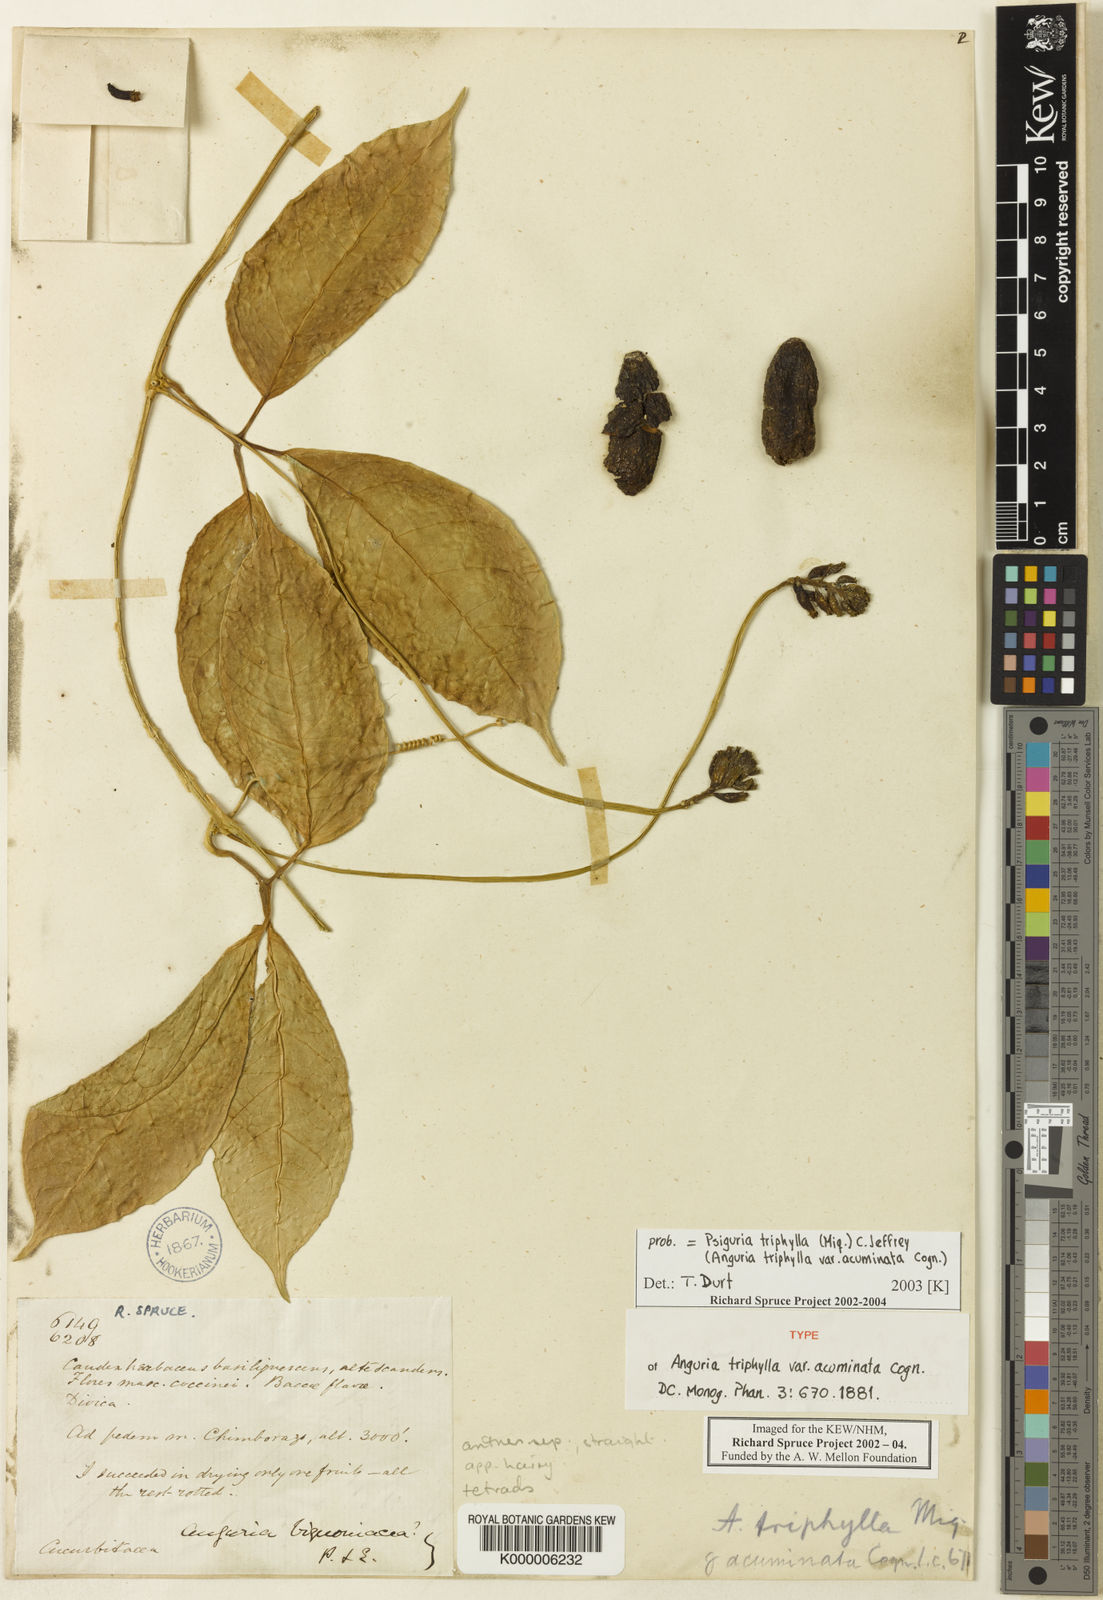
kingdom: Plantae
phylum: Tracheophyta
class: Magnoliopsida
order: Cucurbitales
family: Cucurbitaceae
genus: Psiguria
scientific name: Psiguria triphylla
